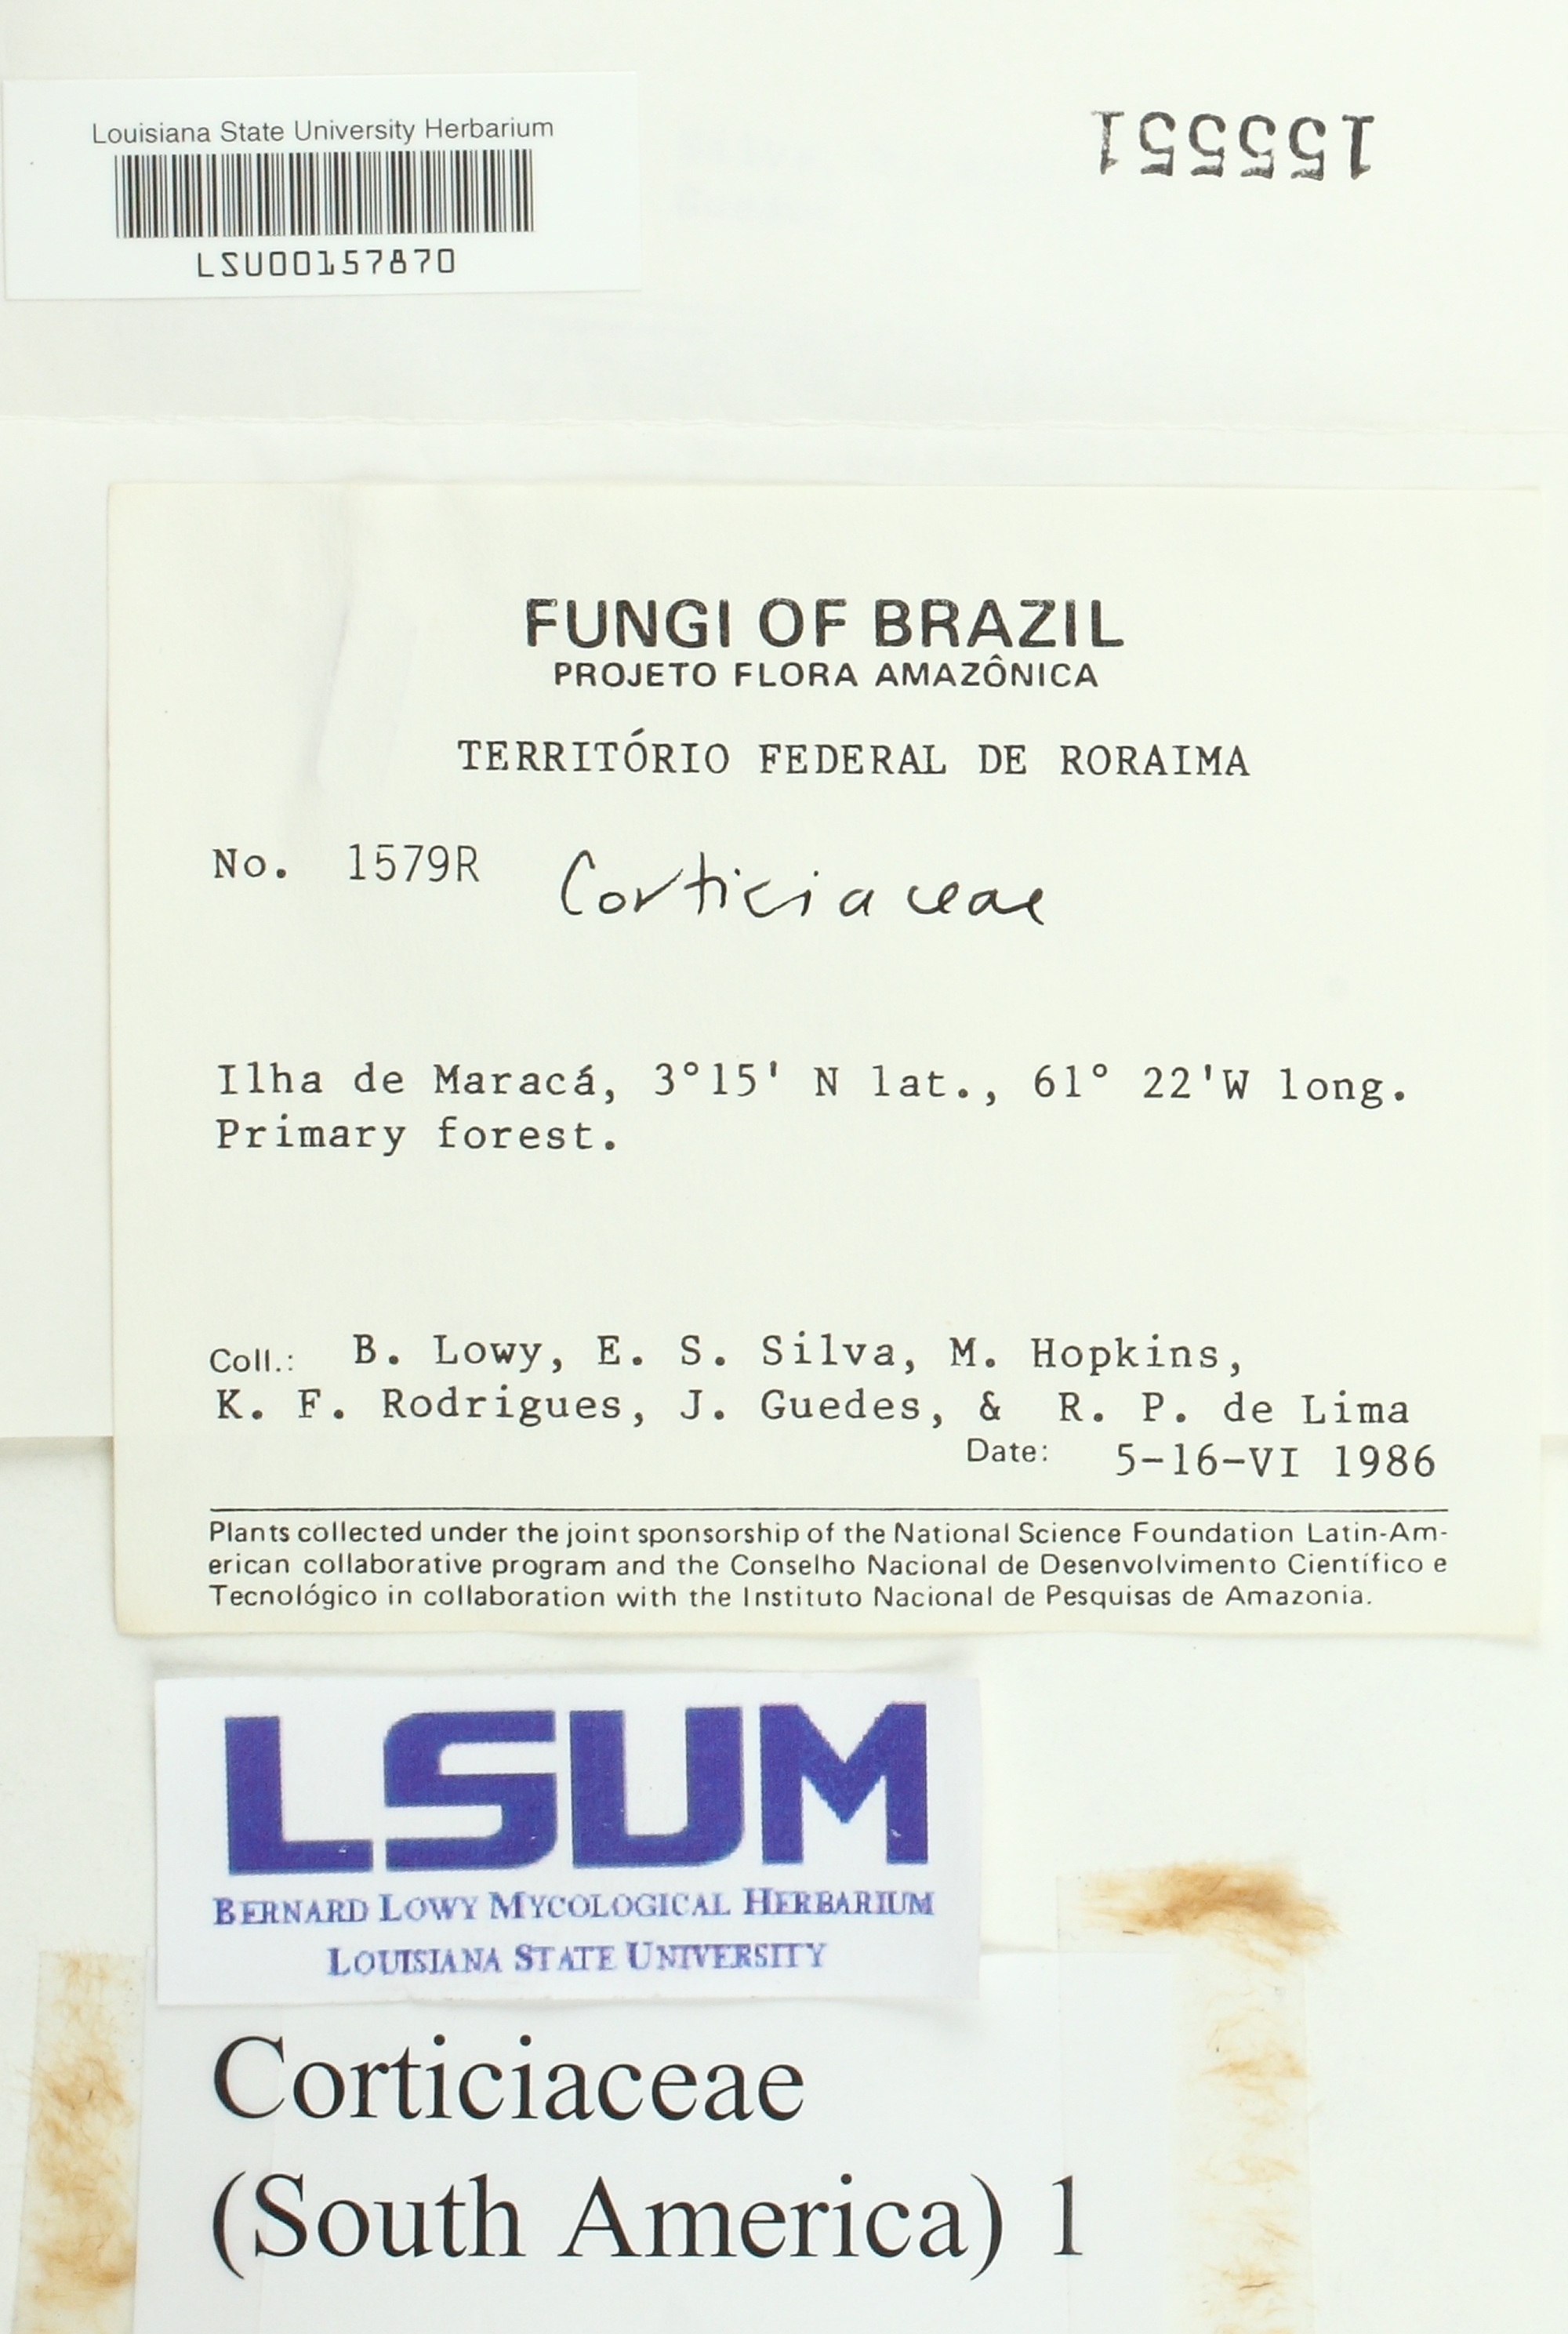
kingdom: Fungi
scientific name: Fungi
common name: Fungi
